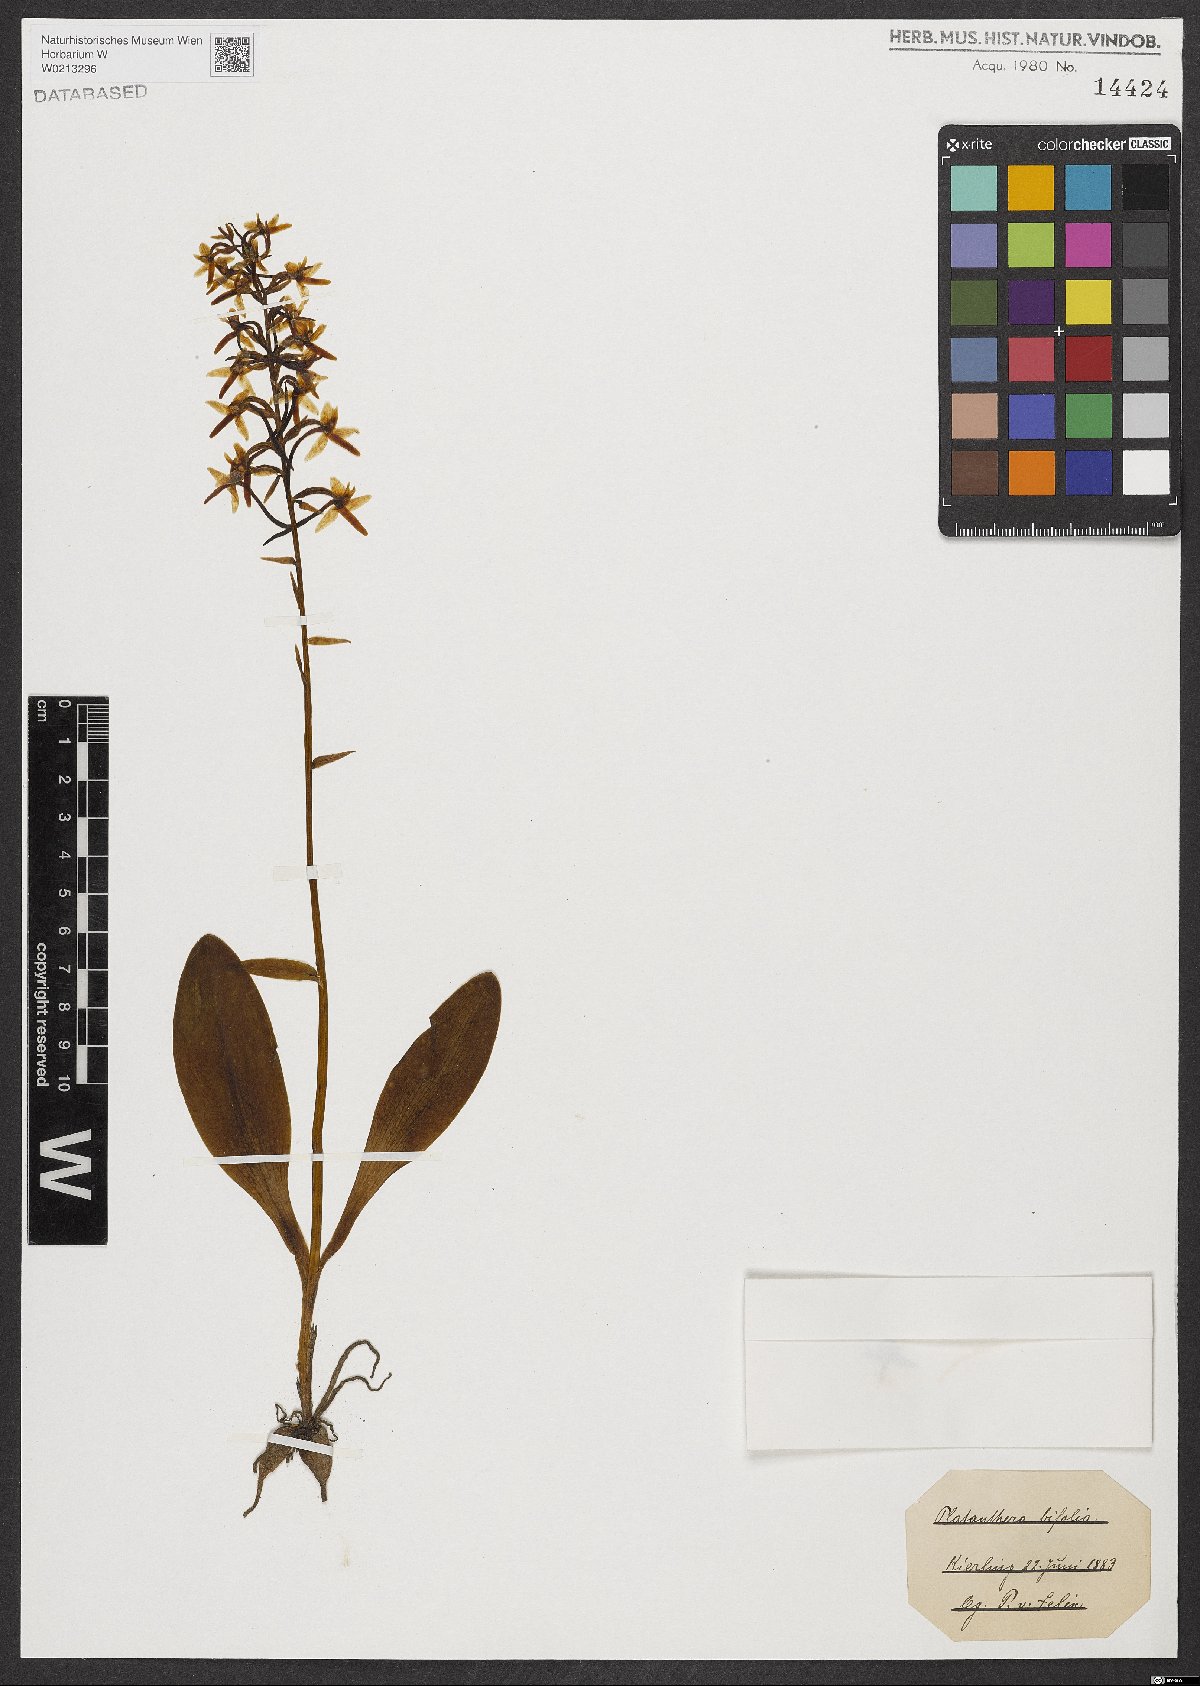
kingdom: Plantae
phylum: Tracheophyta
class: Liliopsida
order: Asparagales
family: Orchidaceae
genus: Platanthera
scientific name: Platanthera bifolia
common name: Lesser butterfly-orchid
